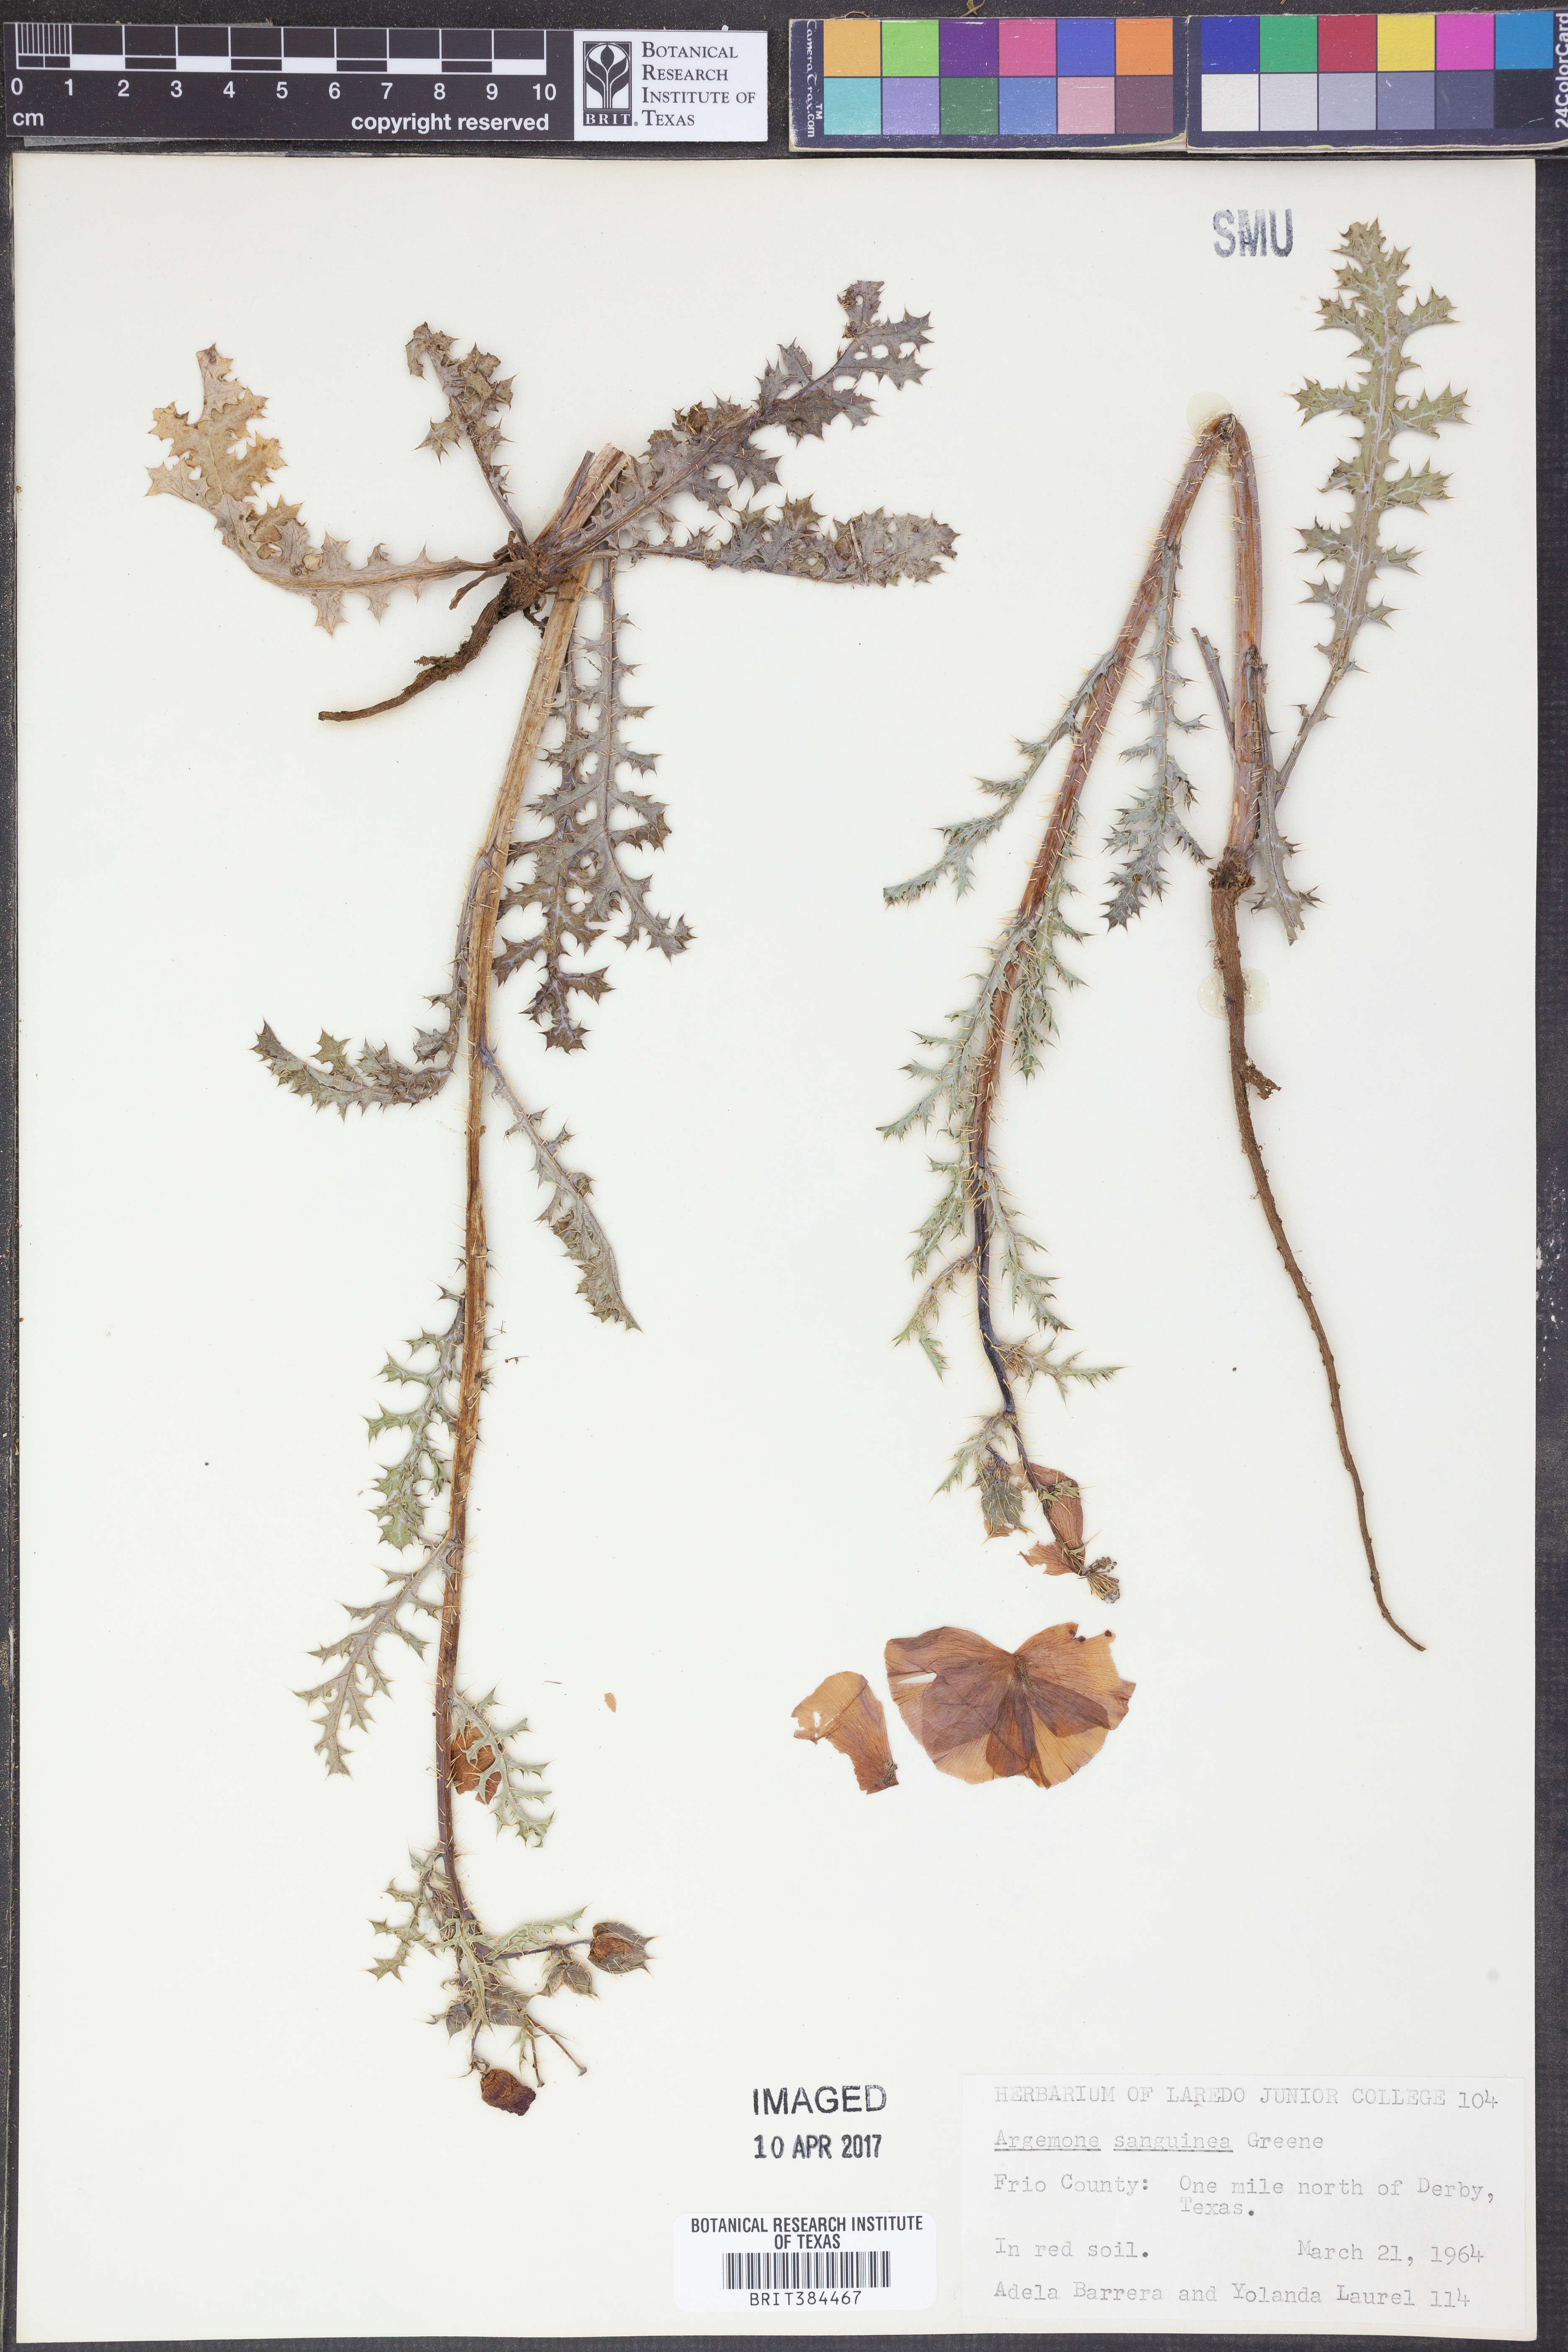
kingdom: Plantae
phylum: Tracheophyta
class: Magnoliopsida
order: Ranunculales
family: Papaveraceae
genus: Argemone
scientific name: Argemone sanguinea
